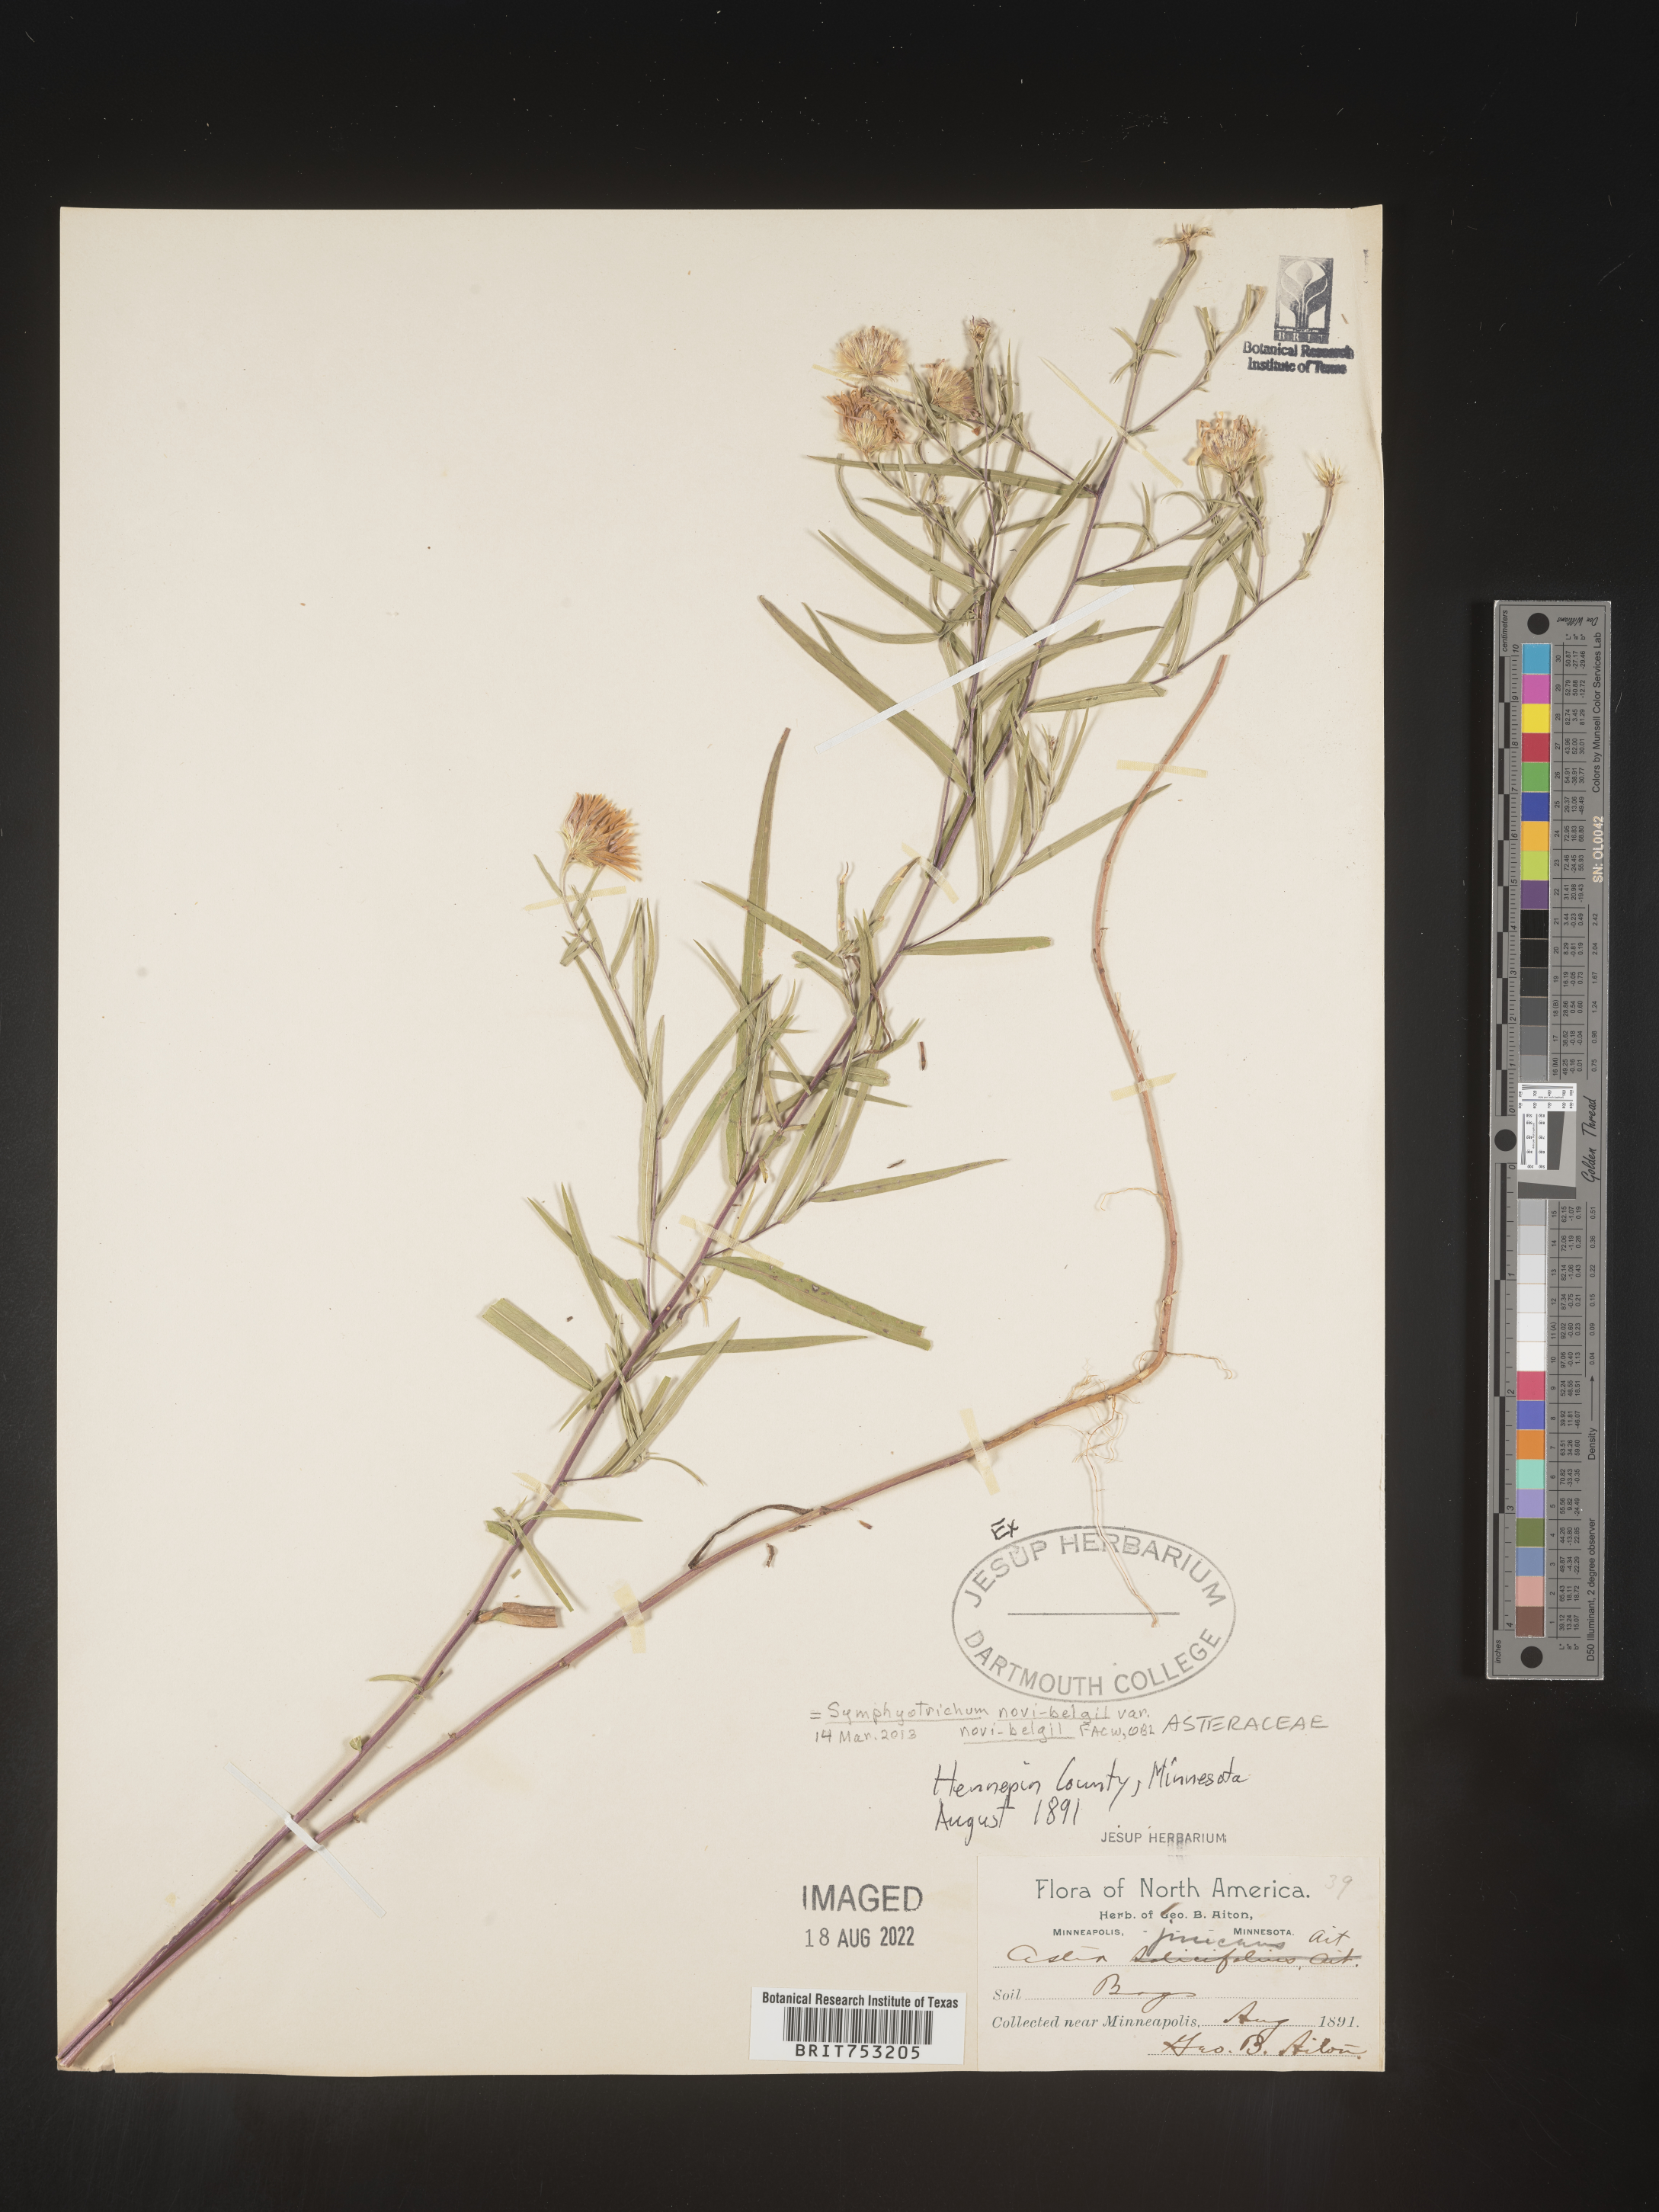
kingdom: Plantae
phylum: Tracheophyta
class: Magnoliopsida
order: Asterales
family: Asteraceae
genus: Symphyotrichum
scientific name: Symphyotrichum novi-belgii
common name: Michaelmas daisy
